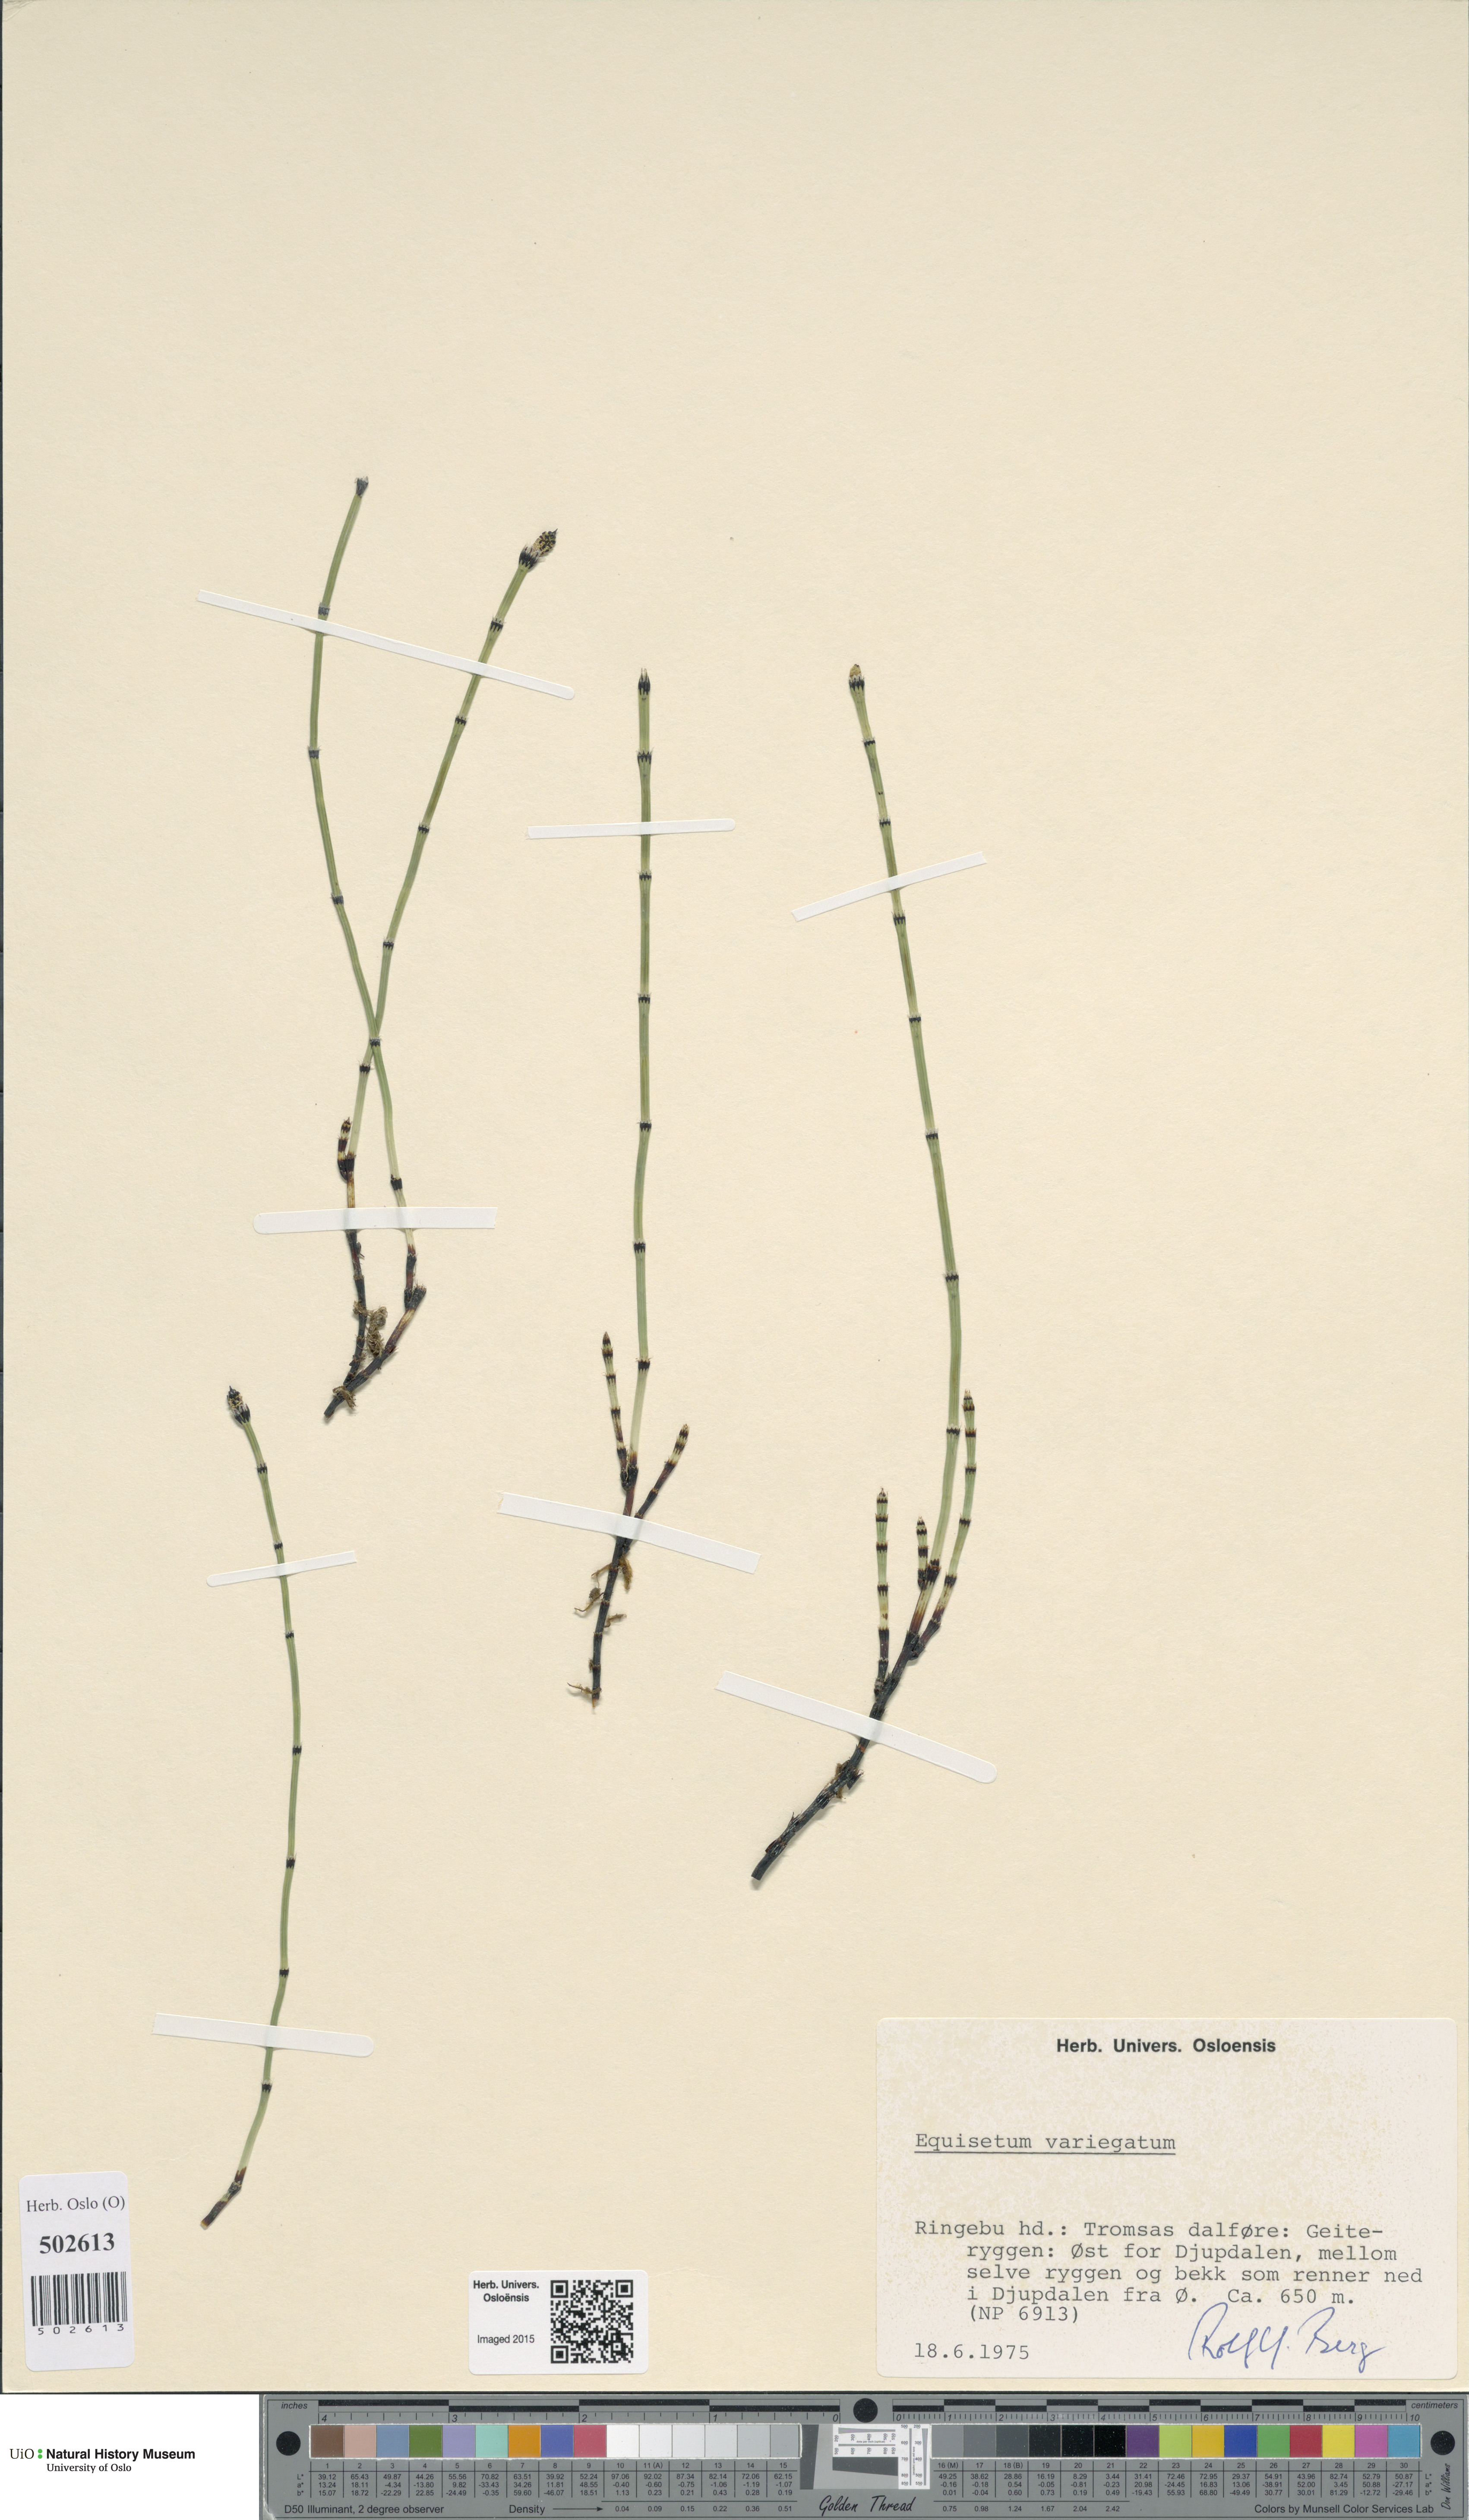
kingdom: Plantae
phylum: Tracheophyta
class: Polypodiopsida
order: Equisetales
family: Equisetaceae
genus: Equisetum
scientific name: Equisetum variegatum
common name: Variegated horsetail
